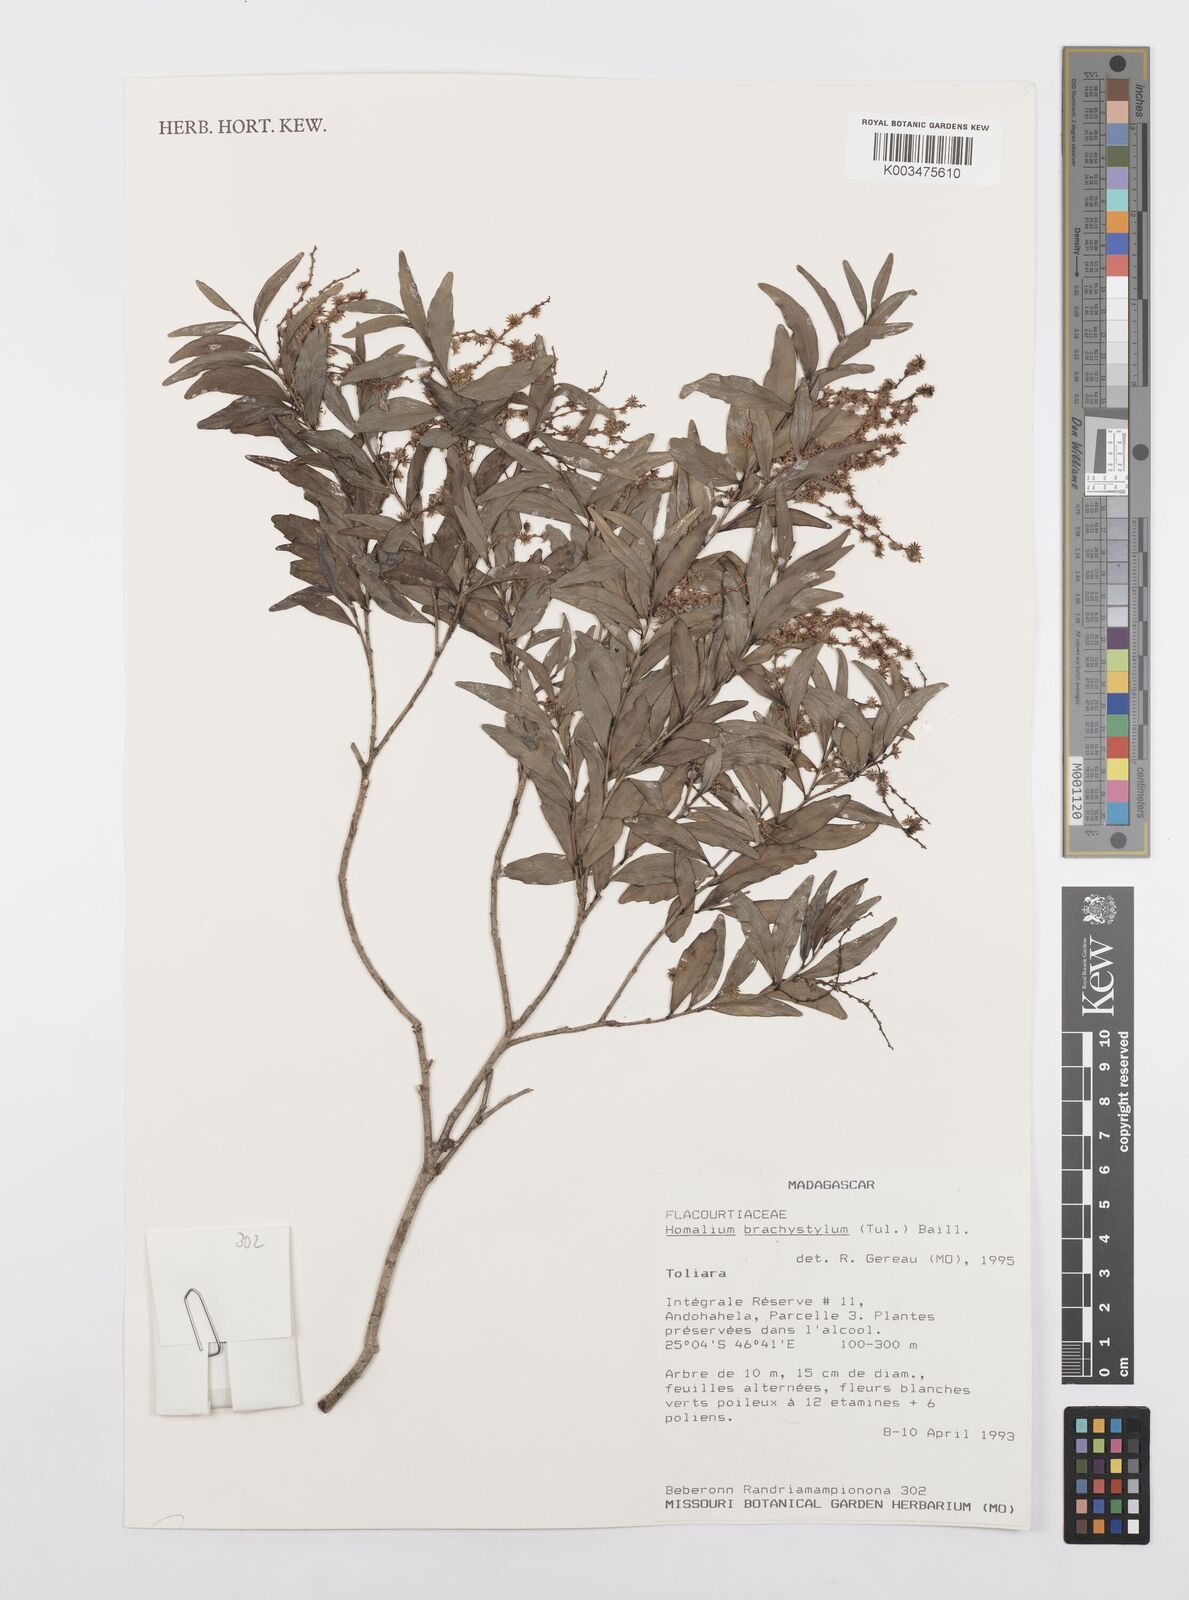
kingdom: Plantae
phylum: Tracheophyta
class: Magnoliopsida
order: Malpighiales
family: Salicaceae
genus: Homalium
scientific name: Homalium brachystylis
